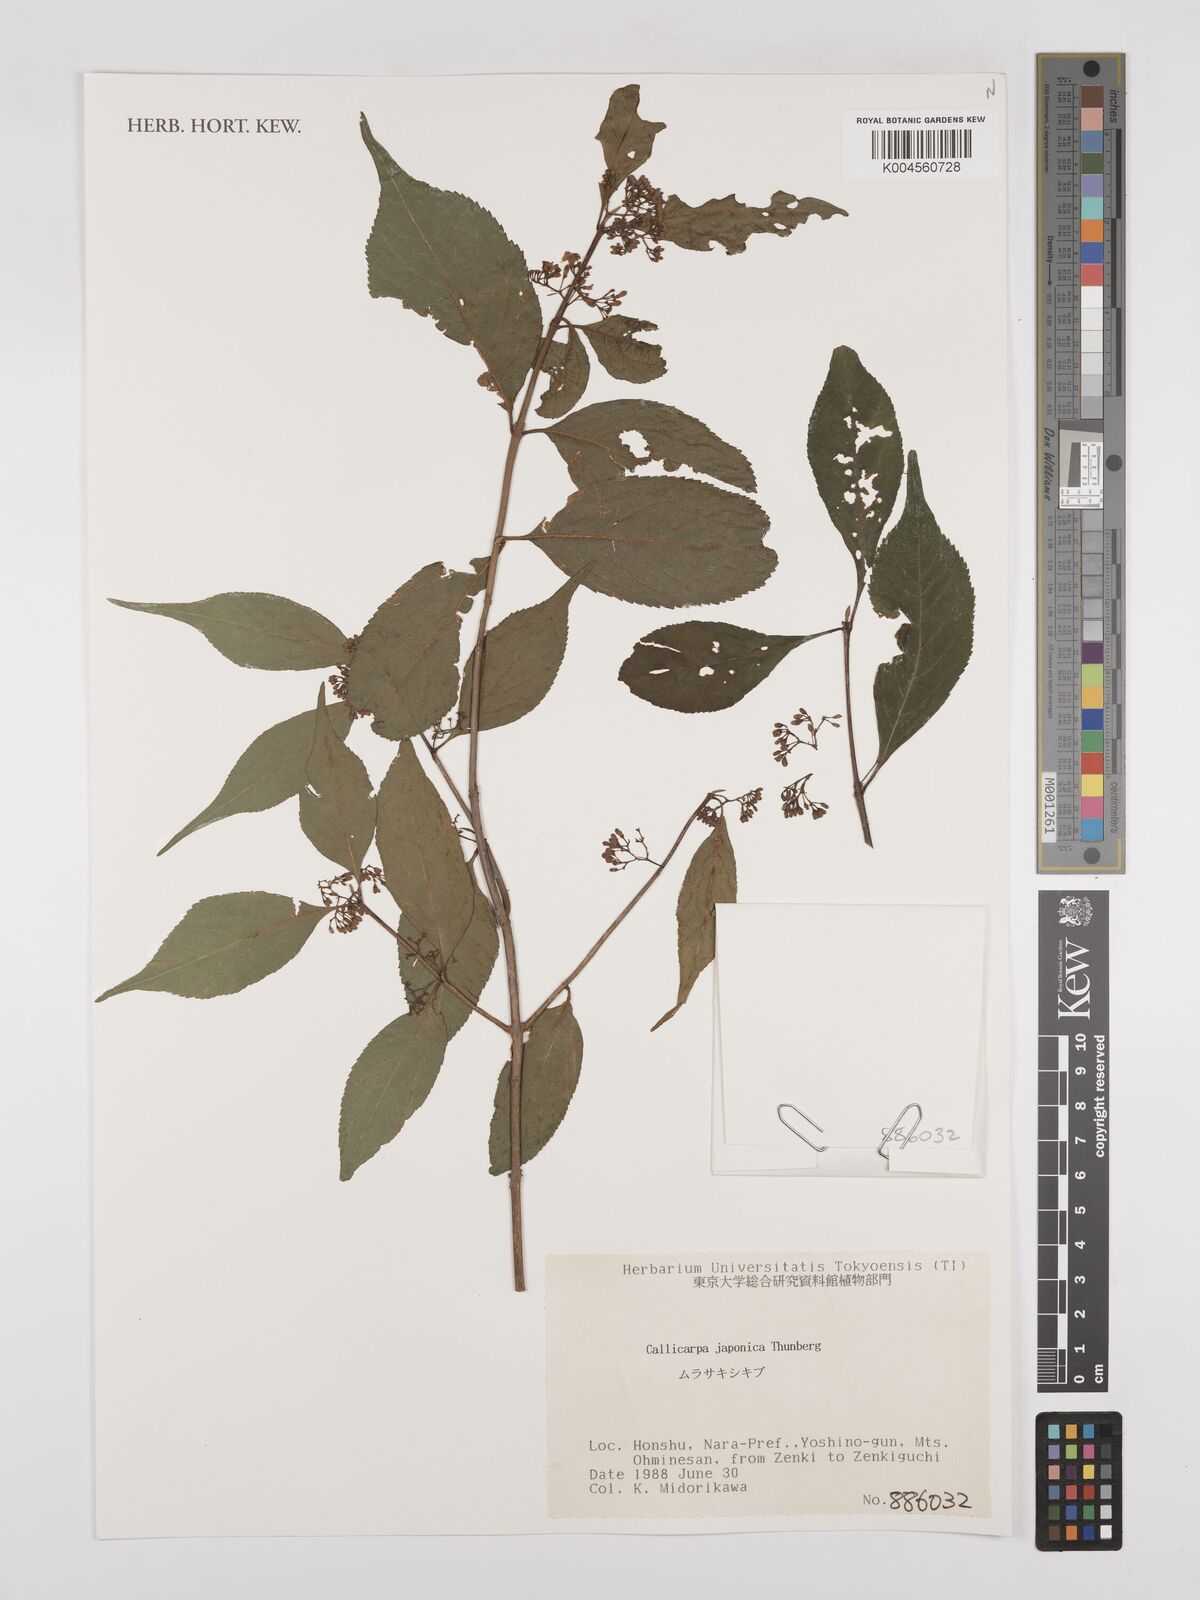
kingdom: Plantae
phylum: Tracheophyta
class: Magnoliopsida
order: Lamiales
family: Lamiaceae
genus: Callicarpa
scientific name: Callicarpa japonica
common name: Japanese beauty-berry
